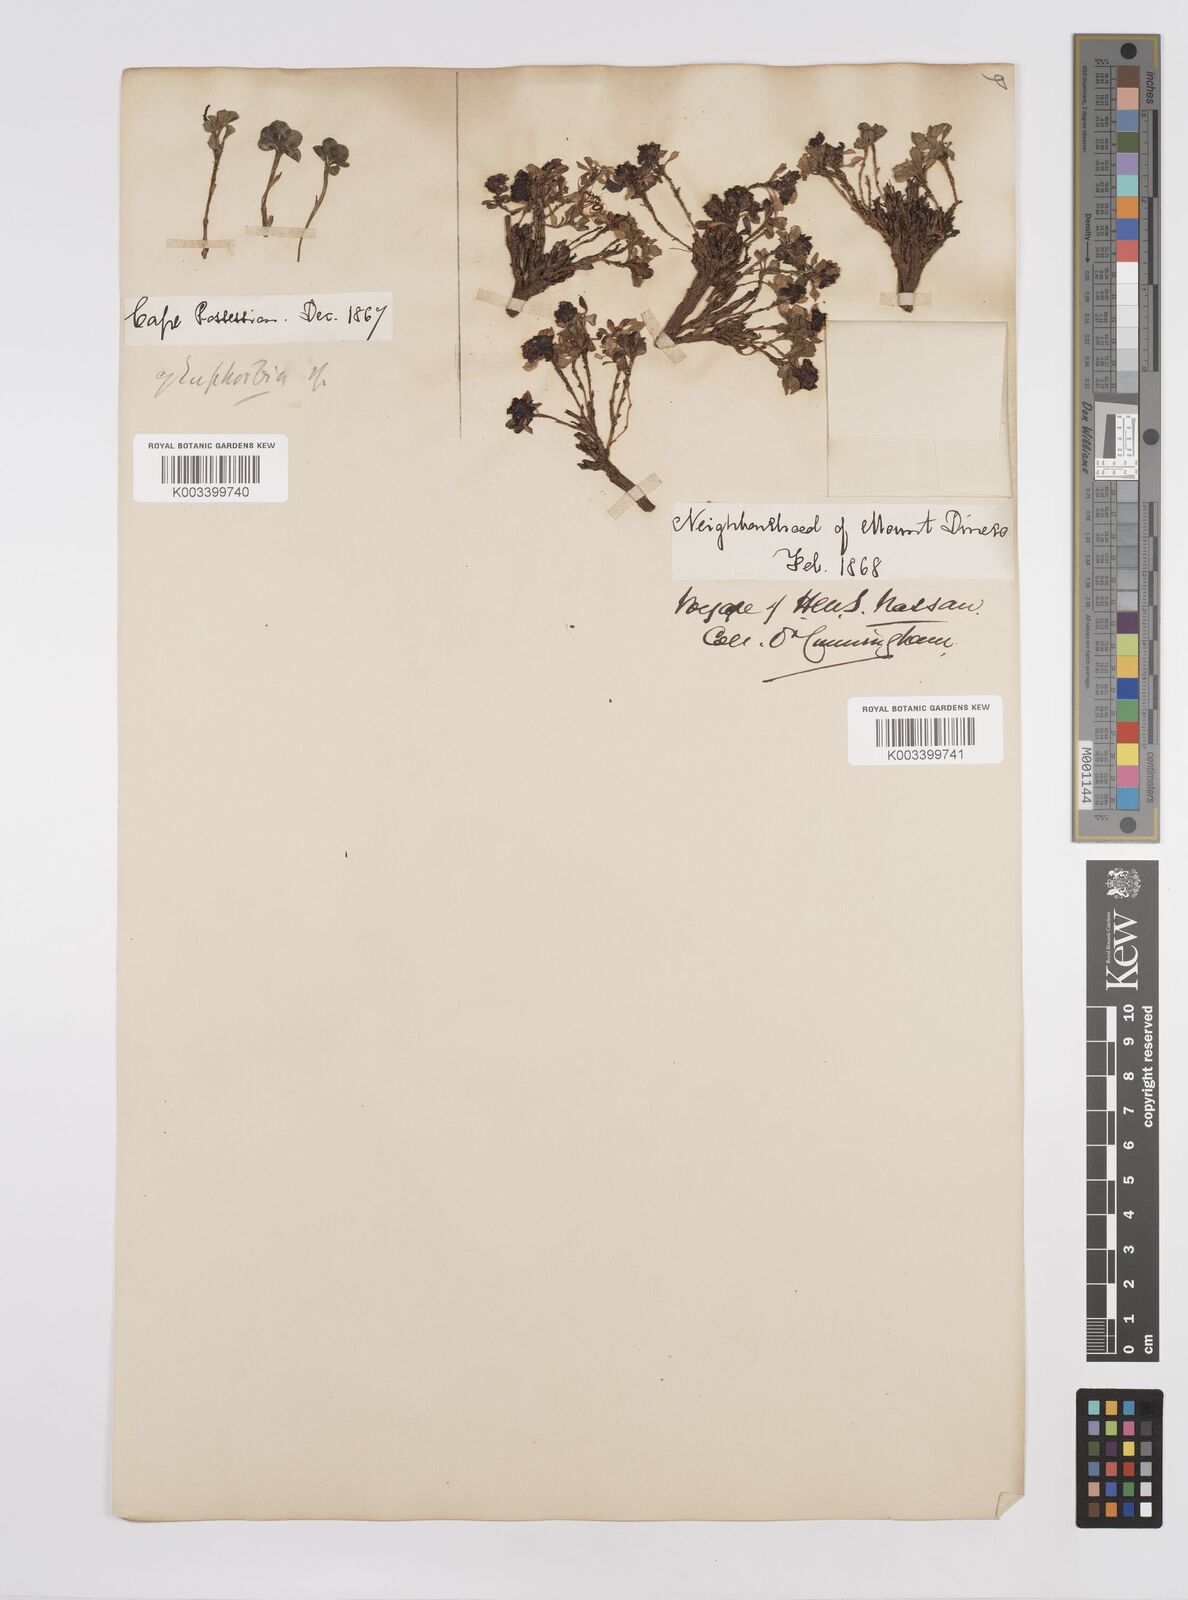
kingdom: Plantae
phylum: Tracheophyta
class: Magnoliopsida
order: Malpighiales
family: Euphorbiaceae
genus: Euphorbia
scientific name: Euphorbia
